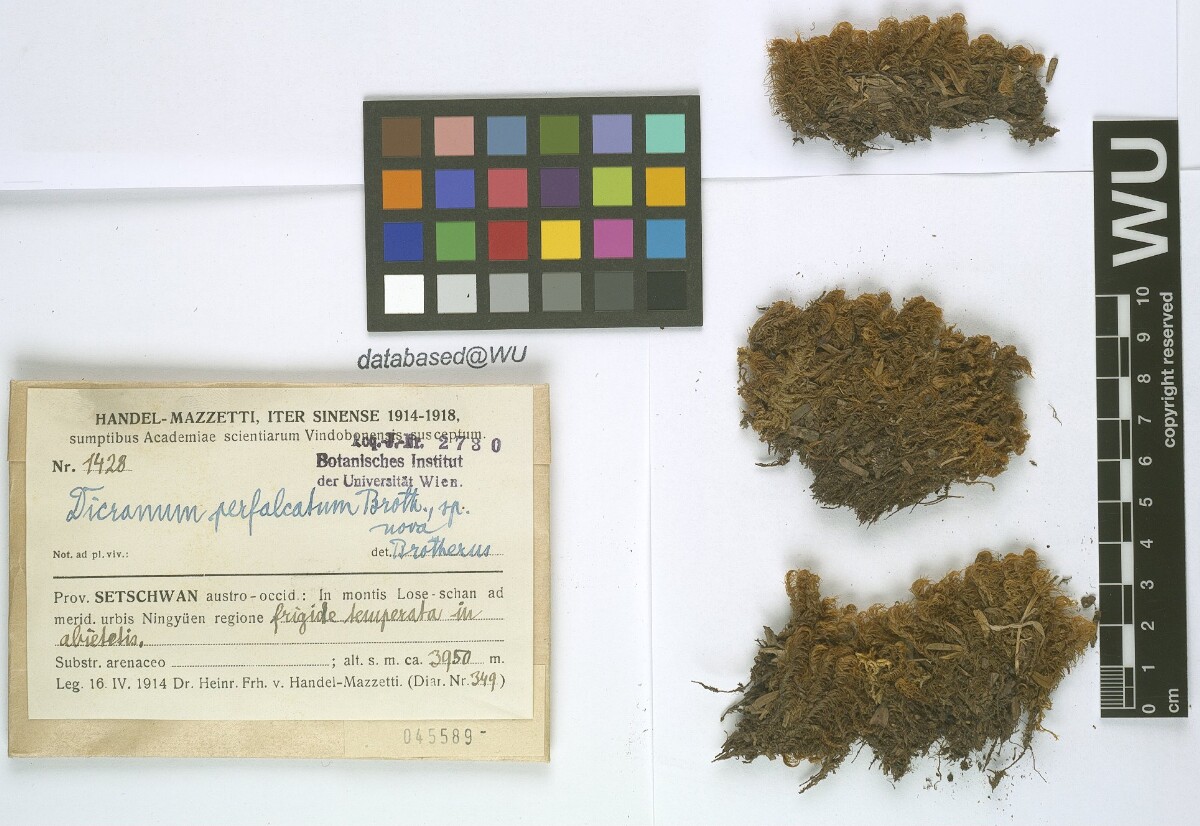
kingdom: Plantae
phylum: Bryophyta
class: Bryopsida
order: Dicranales
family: Dicranaceae
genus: Dicranum
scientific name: Dicranum drummondii
